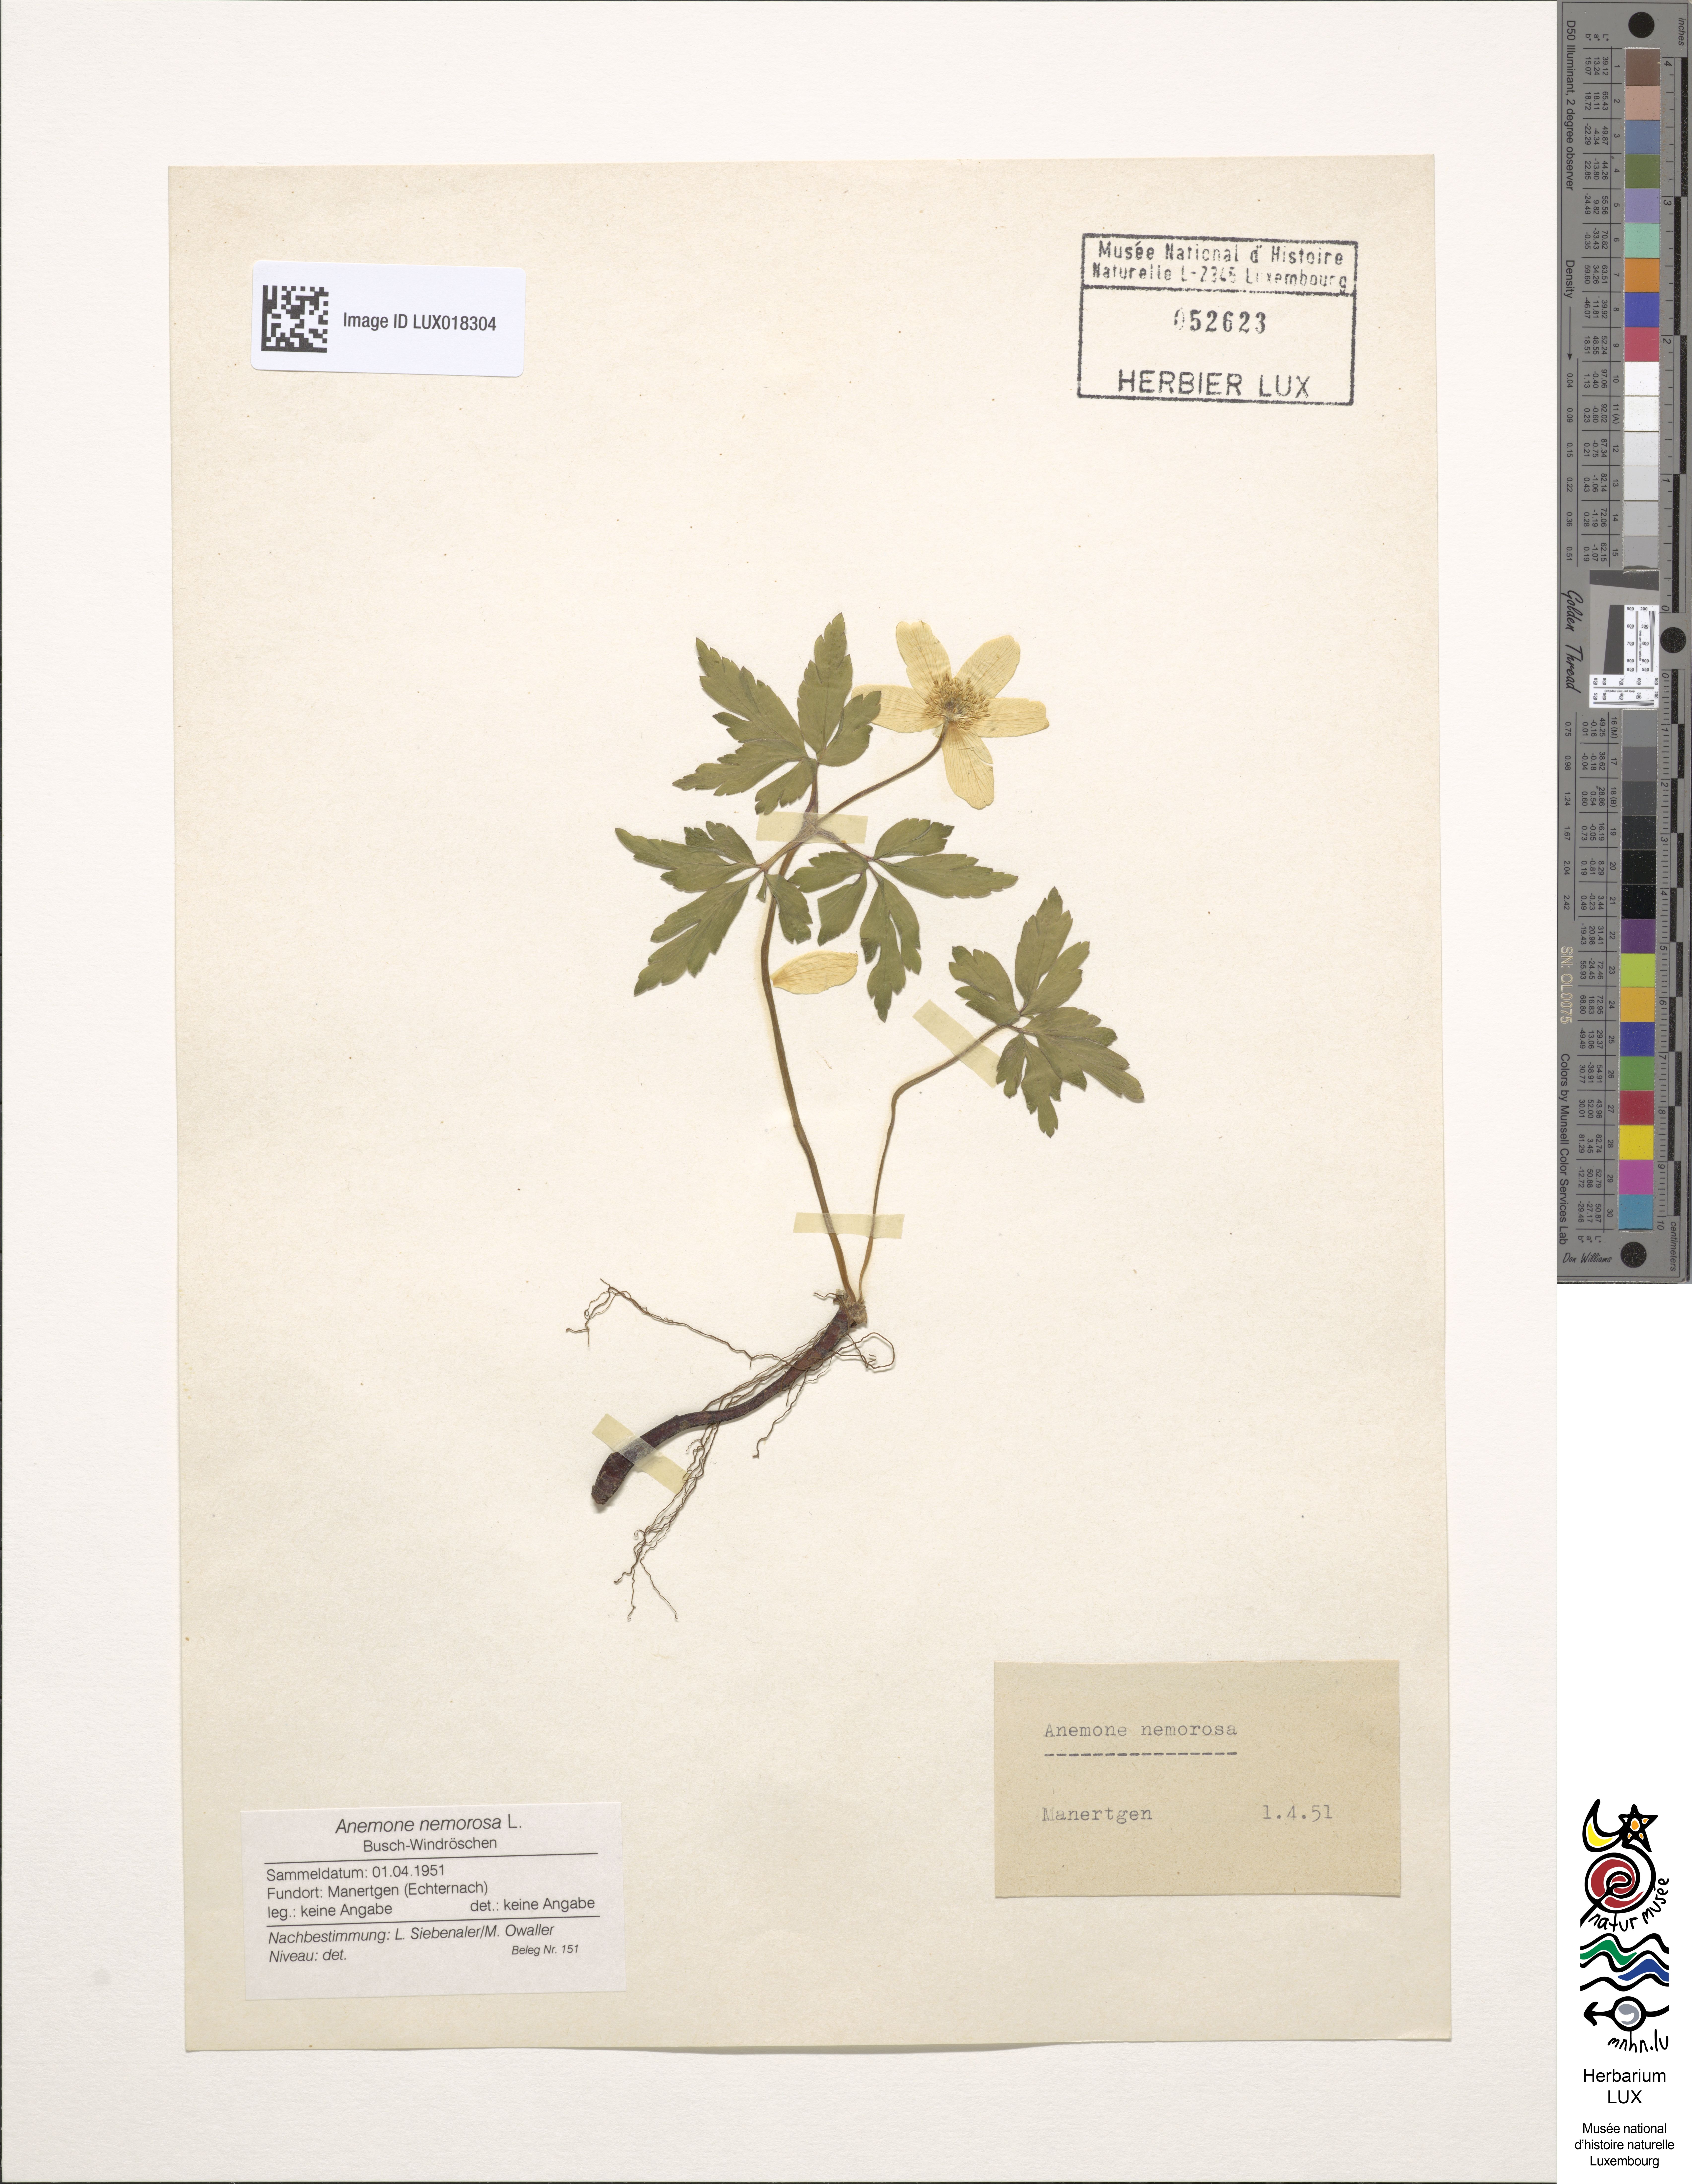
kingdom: Plantae
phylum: Tracheophyta
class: Magnoliopsida
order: Ranunculales
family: Ranunculaceae
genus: Anemone
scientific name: Anemone nemorosa
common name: Wood anemone
